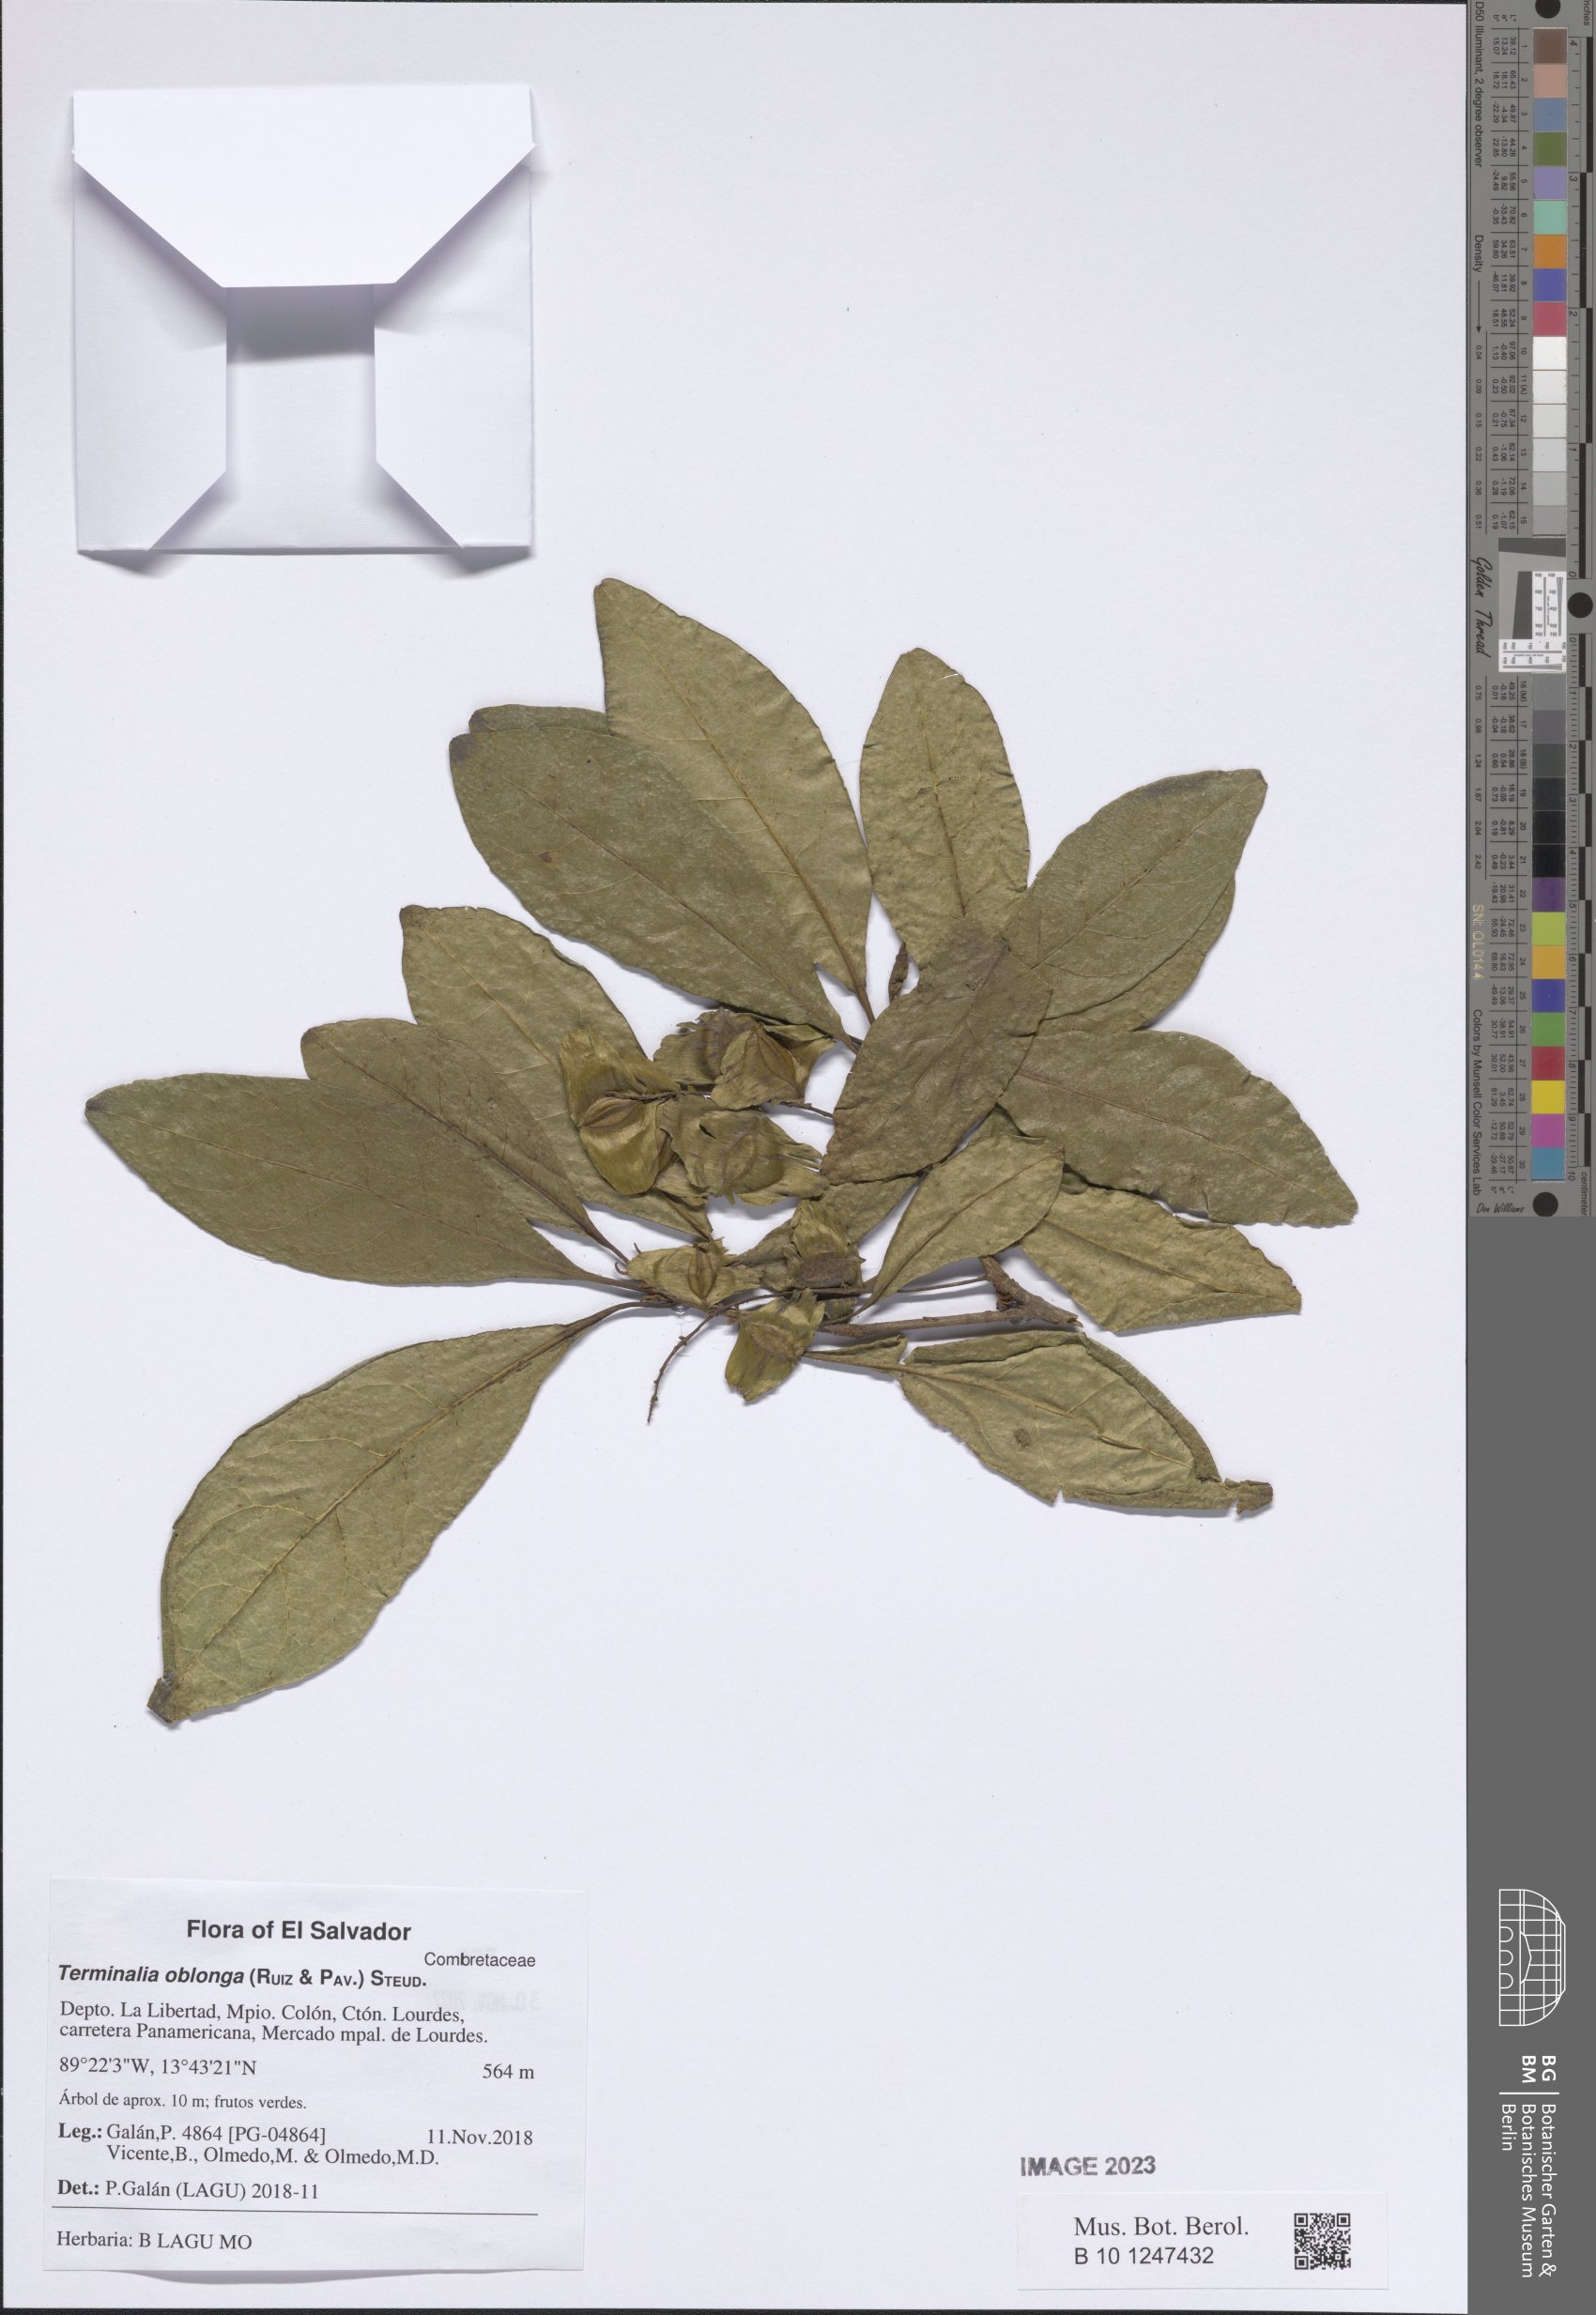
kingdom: Plantae
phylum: Tracheophyta
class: Magnoliopsida
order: Myrtales
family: Combretaceae
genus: Terminalia
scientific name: Terminalia oblonga
